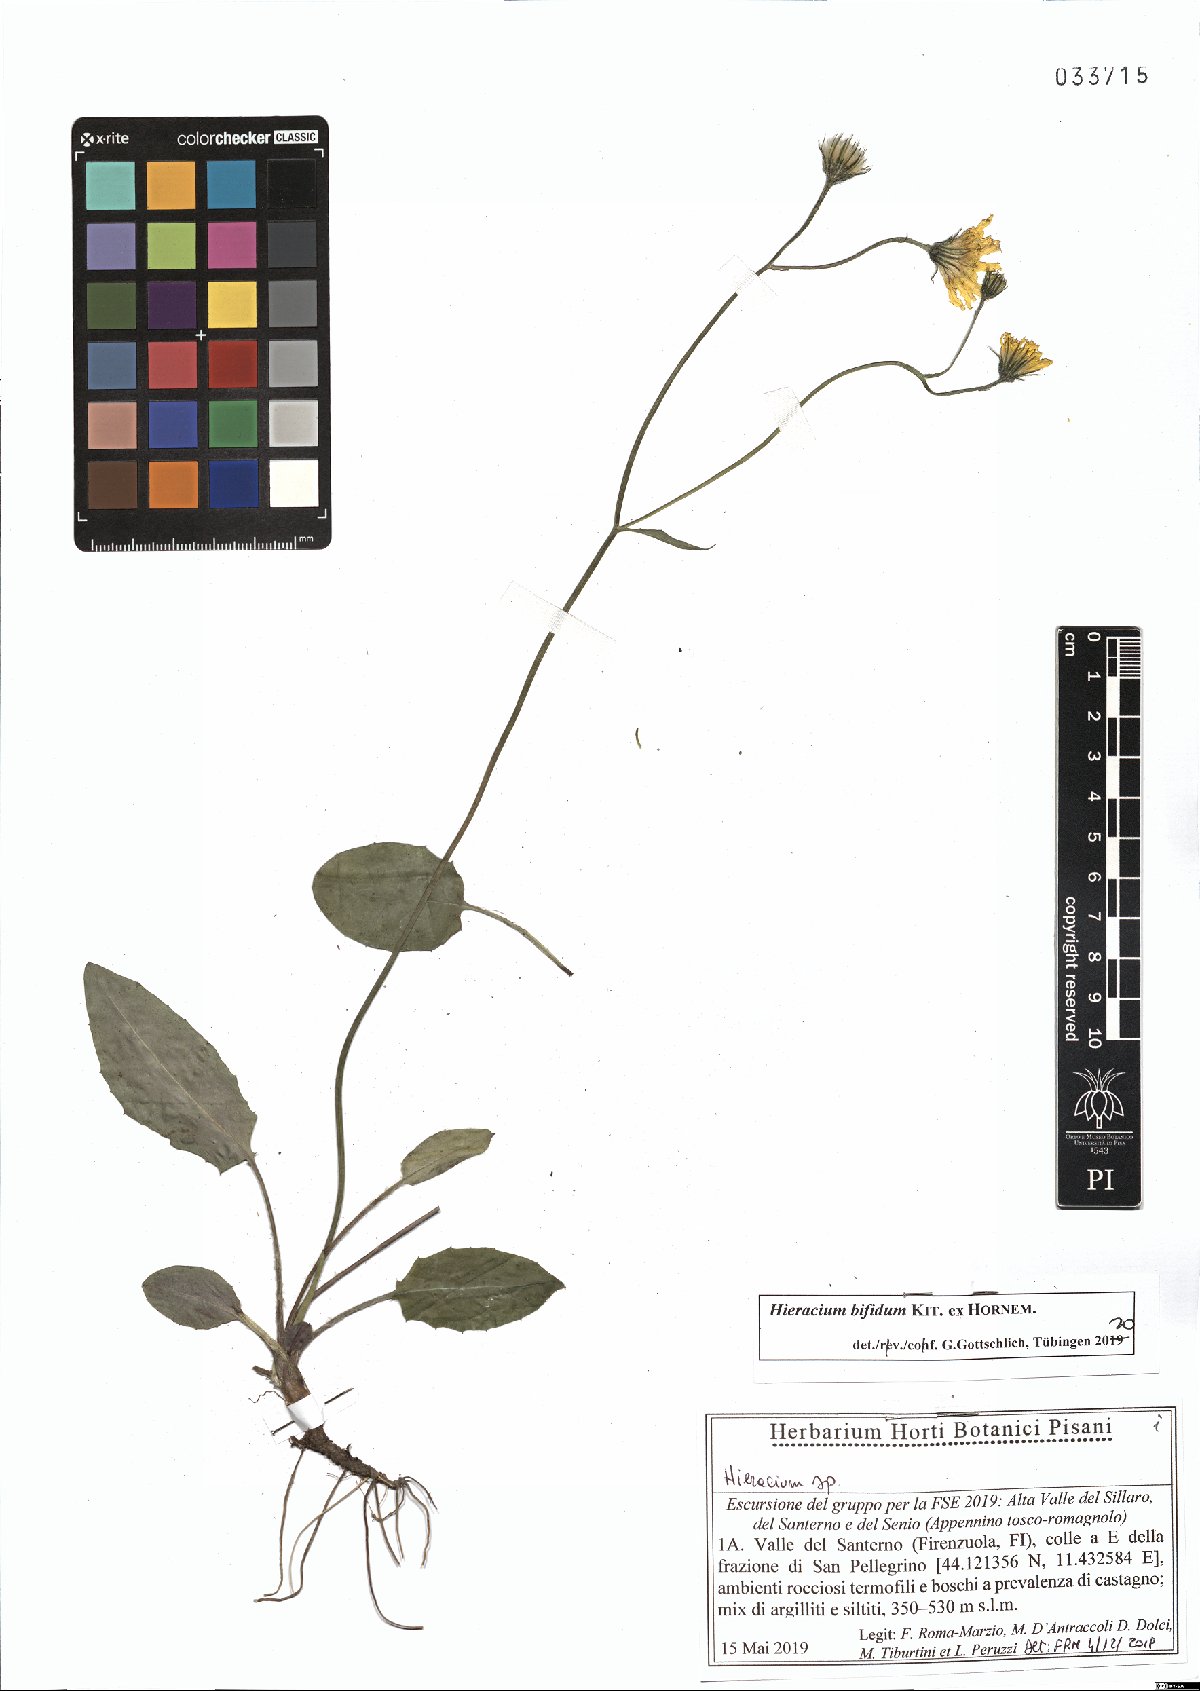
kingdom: Plantae
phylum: Tracheophyta
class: Magnoliopsida
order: Asterales
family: Asteraceae
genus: Hieracium
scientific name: Hieracium bifidum
